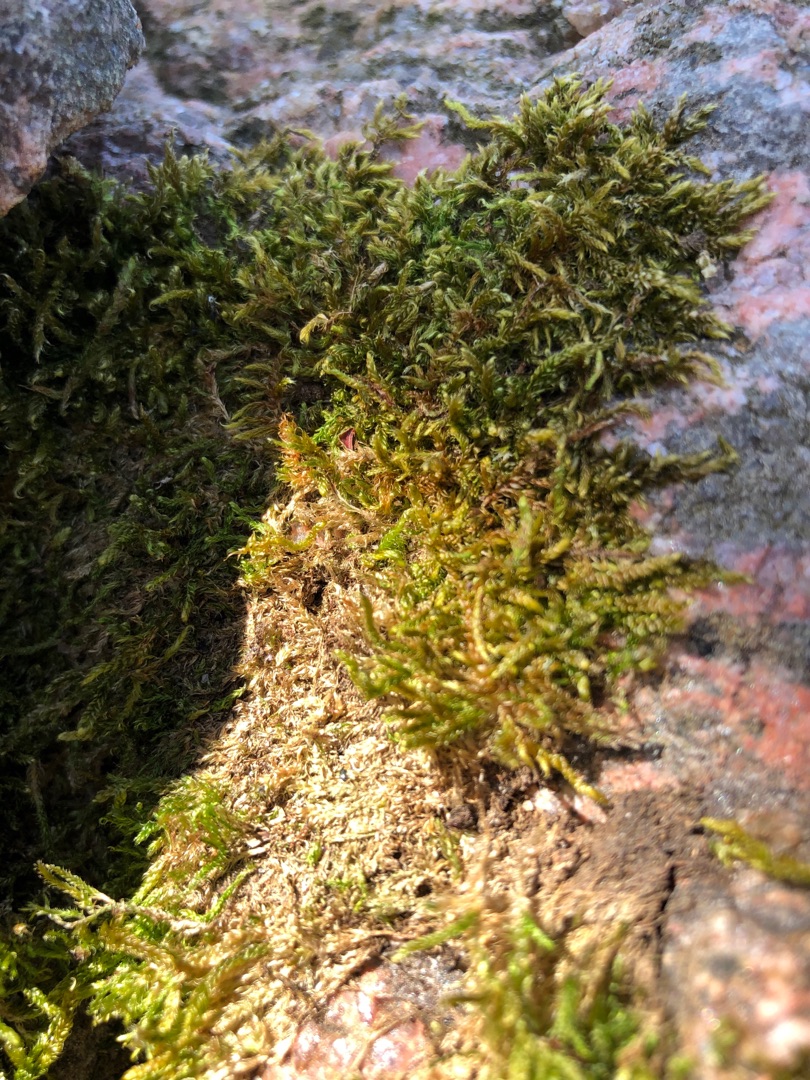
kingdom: Plantae
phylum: Bryophyta
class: Bryopsida
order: Hypnales
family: Hypnaceae
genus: Hypnum
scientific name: Hypnum cupressiforme
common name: Almindelig cypresmos
